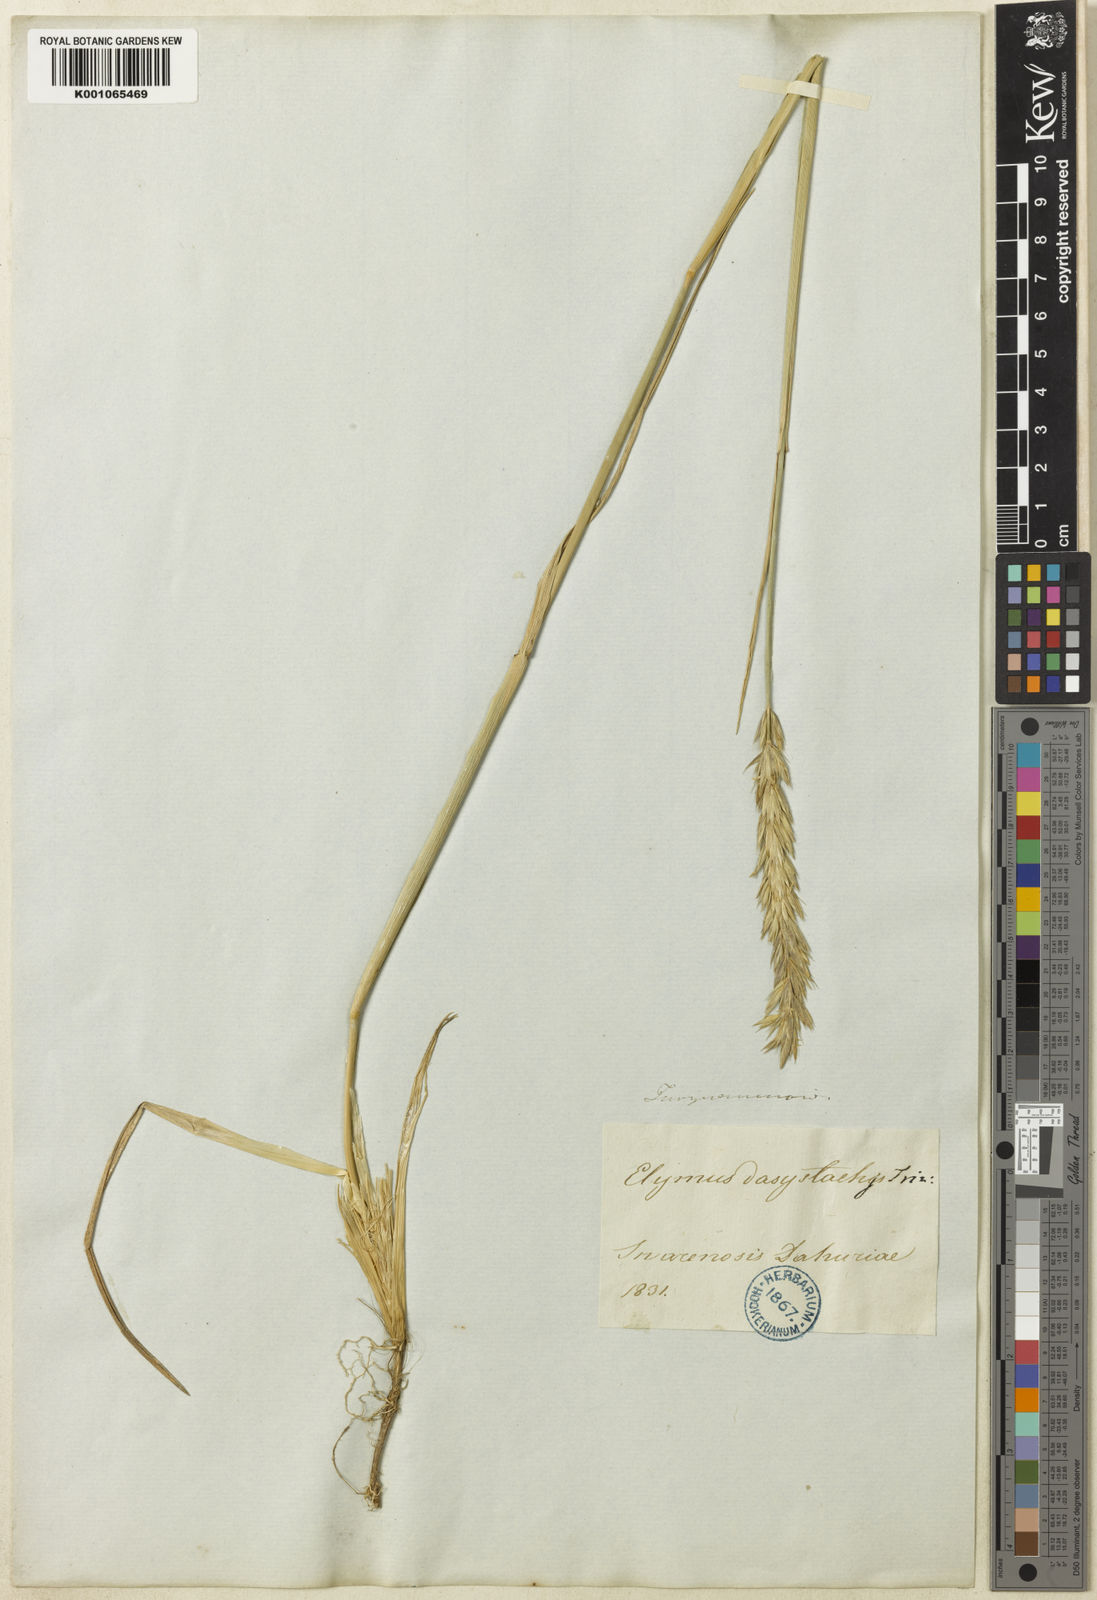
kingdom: Plantae
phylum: Tracheophyta
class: Liliopsida
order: Poales
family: Poaceae
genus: Leymus
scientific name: Leymus secalinus
